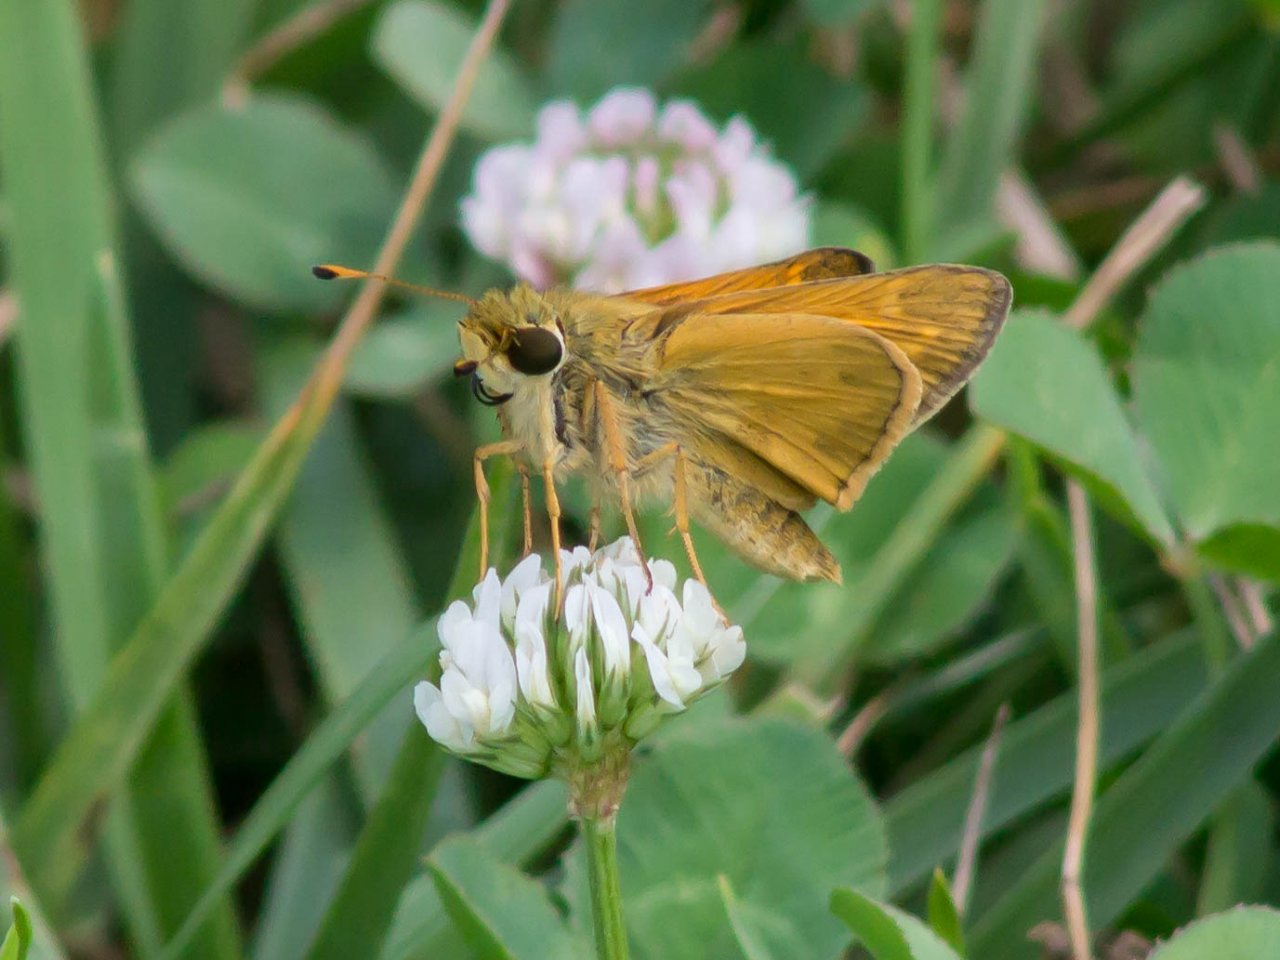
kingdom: Animalia
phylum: Arthropoda
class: Insecta
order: Lepidoptera
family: Hesperiidae
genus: Atalopedes
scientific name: Atalopedes campestris
